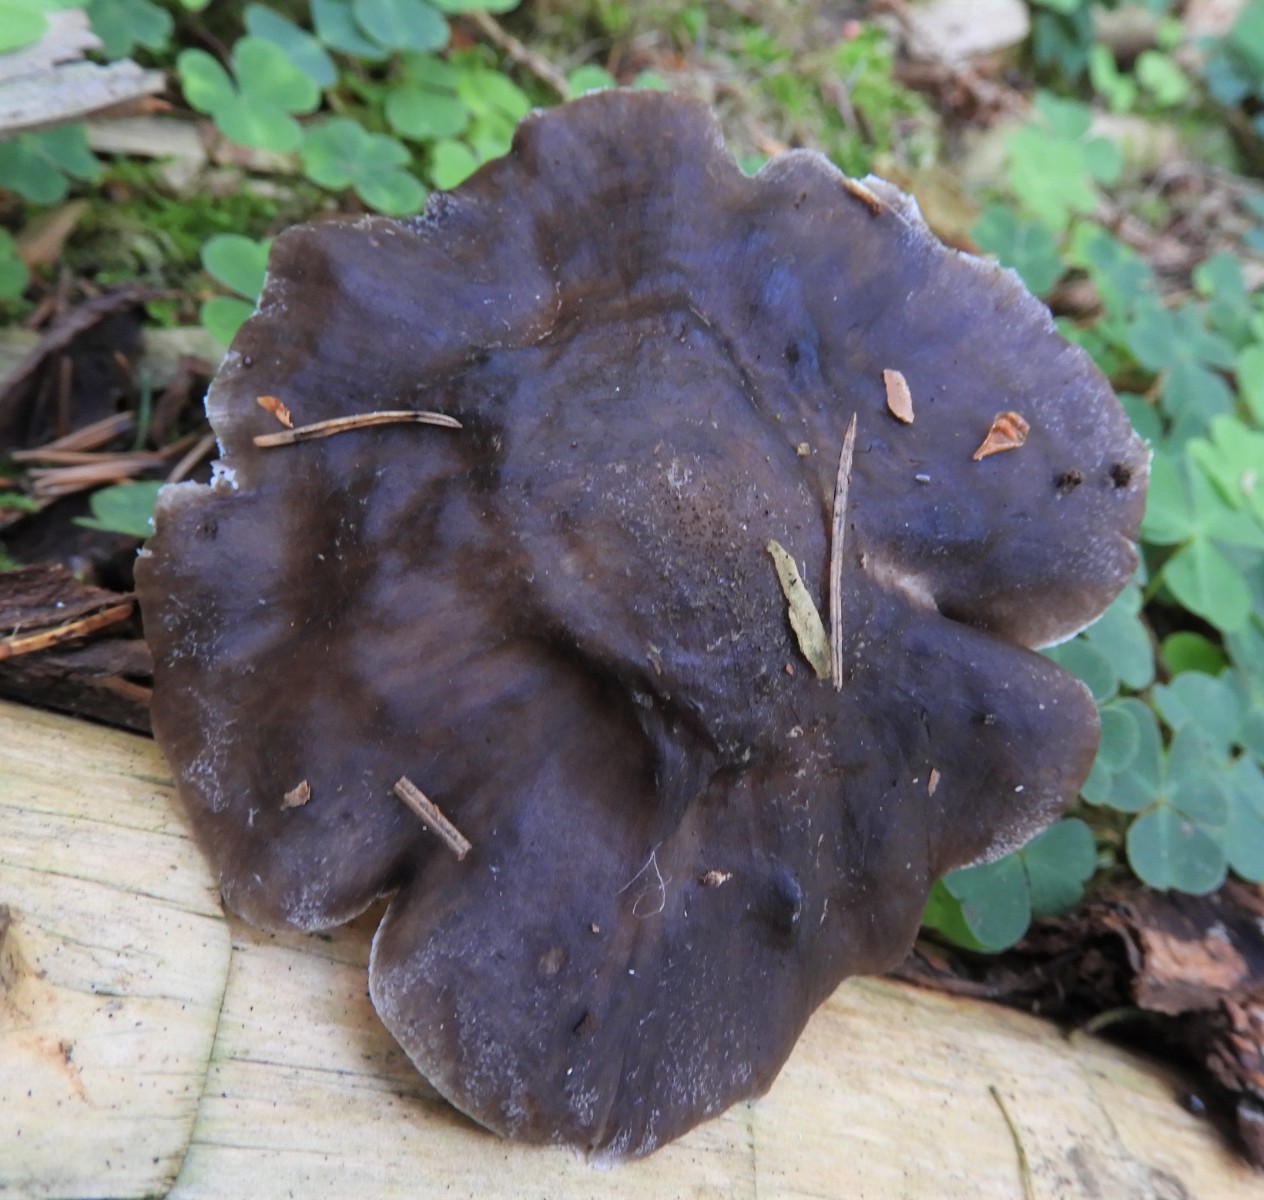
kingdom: Fungi
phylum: Basidiomycota
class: Agaricomycetes
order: Agaricales
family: Pluteaceae
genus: Pluteus
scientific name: Pluteus cervinus
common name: sodfarvet skærmhat
